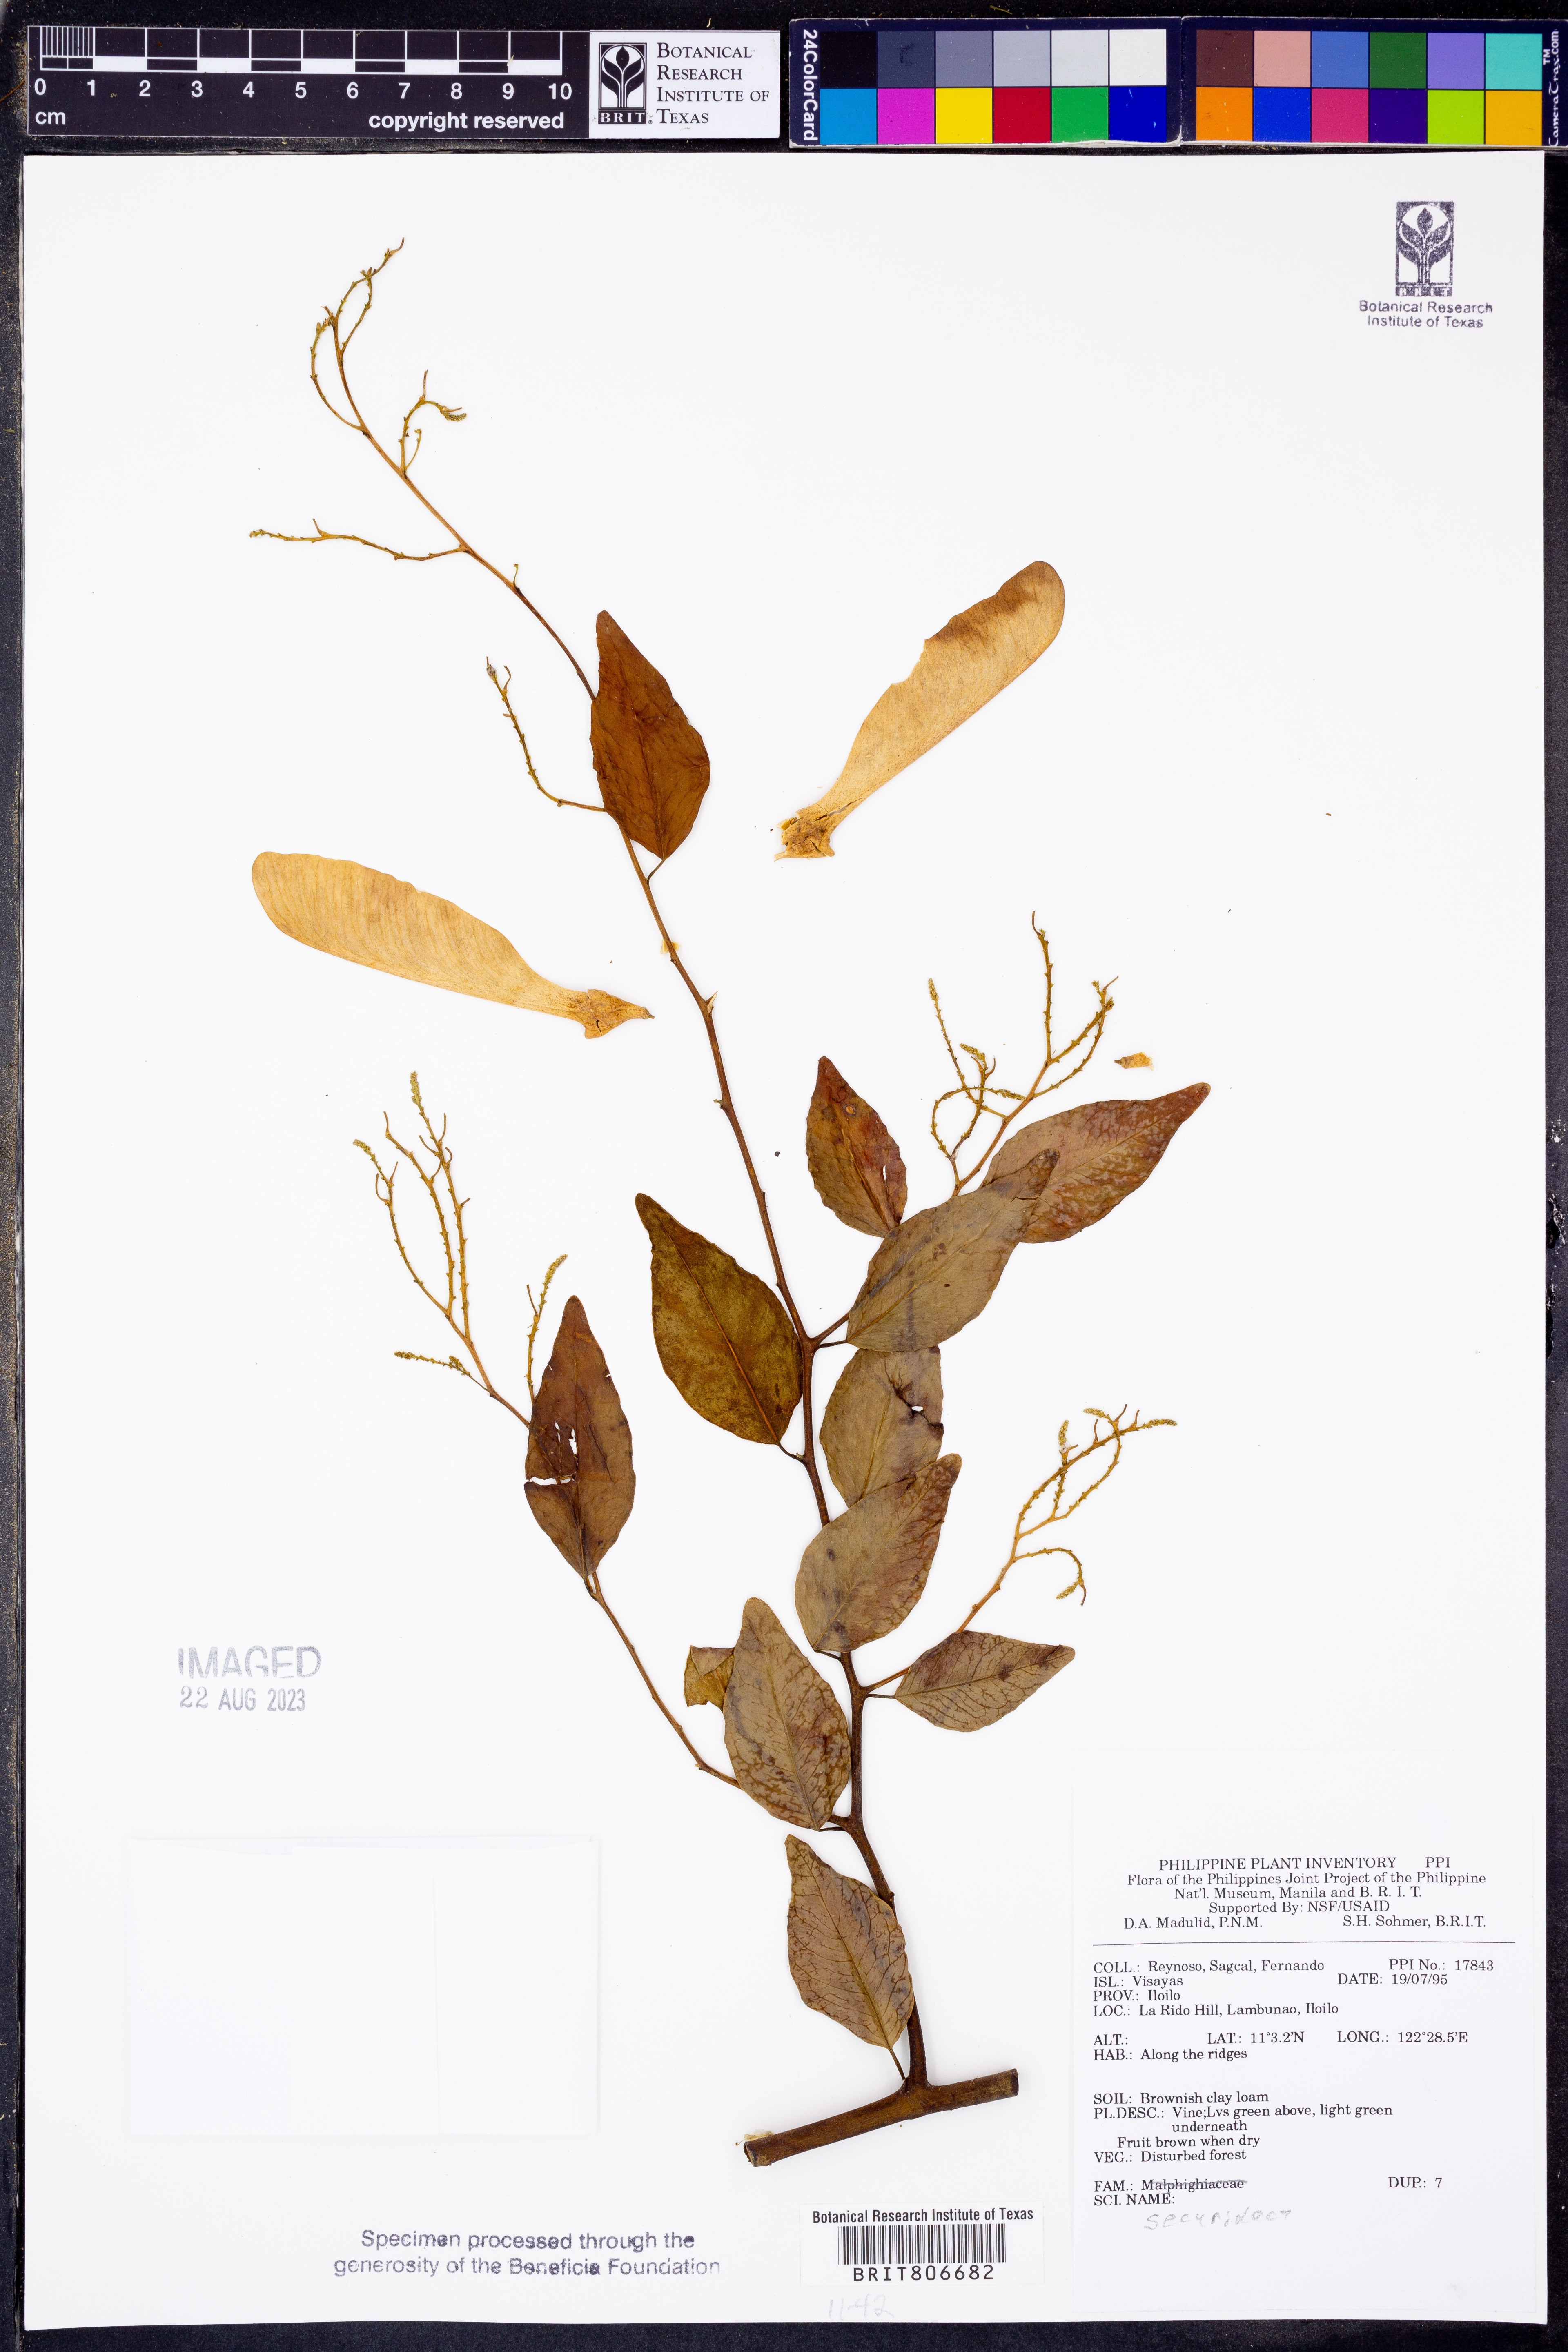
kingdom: Plantae
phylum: Tracheophyta
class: Magnoliopsida
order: Fabales
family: Polygalaceae
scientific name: Polygalaceae
